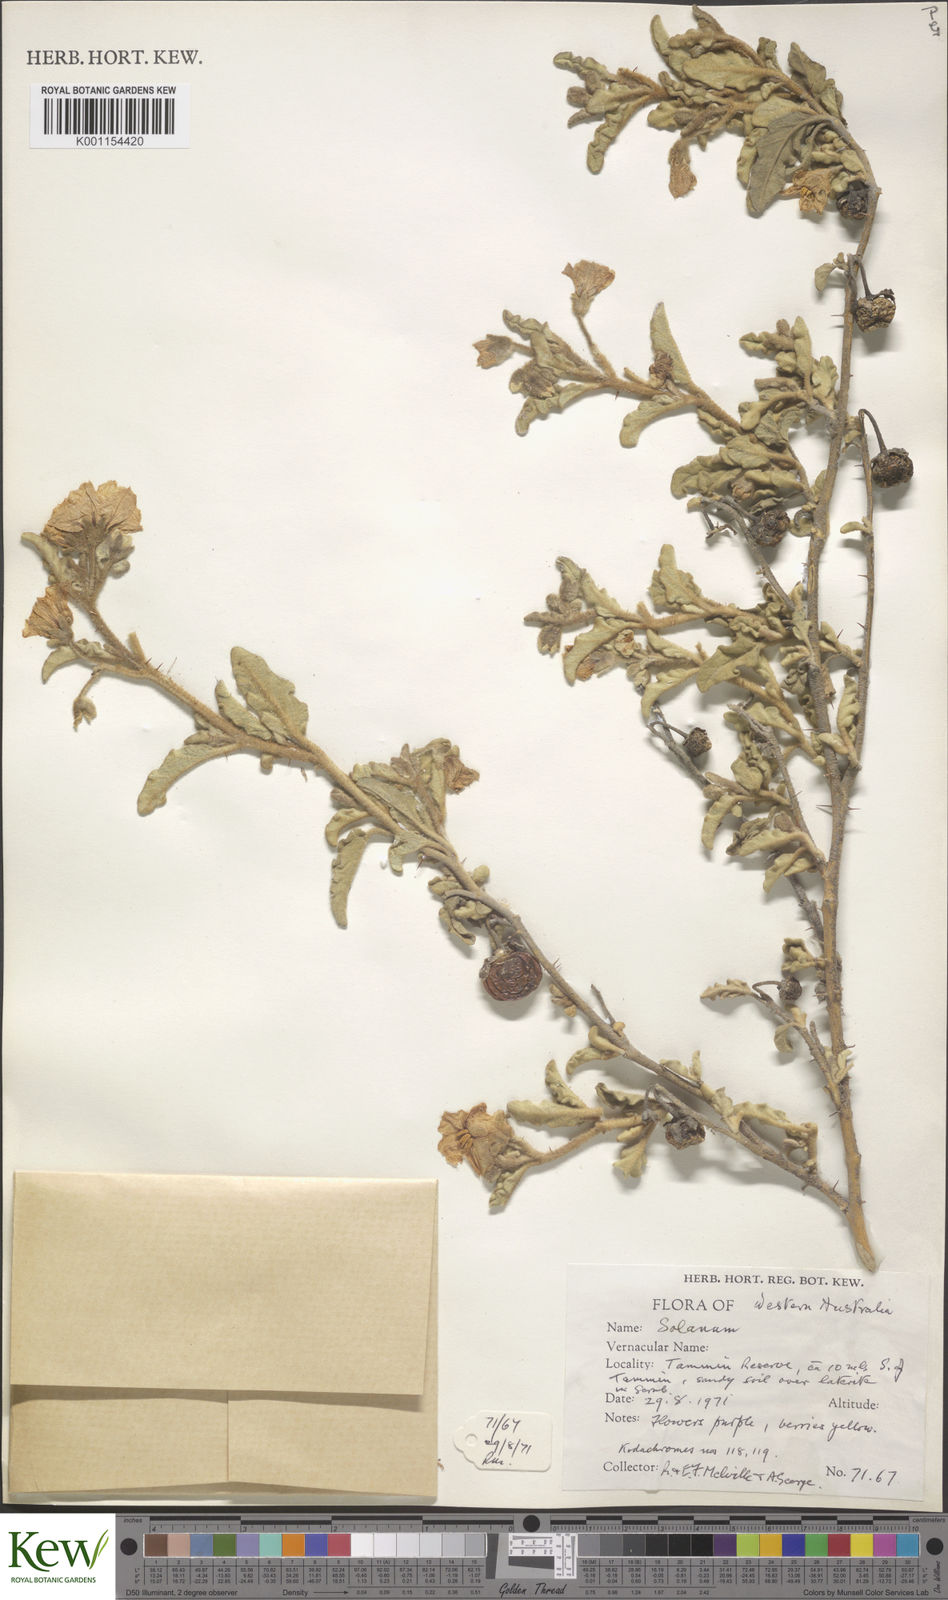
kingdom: Plantae
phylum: Tracheophyta
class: Magnoliopsida
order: Solanales
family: Solanaceae
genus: Solanum
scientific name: Solanum oldfieldii
